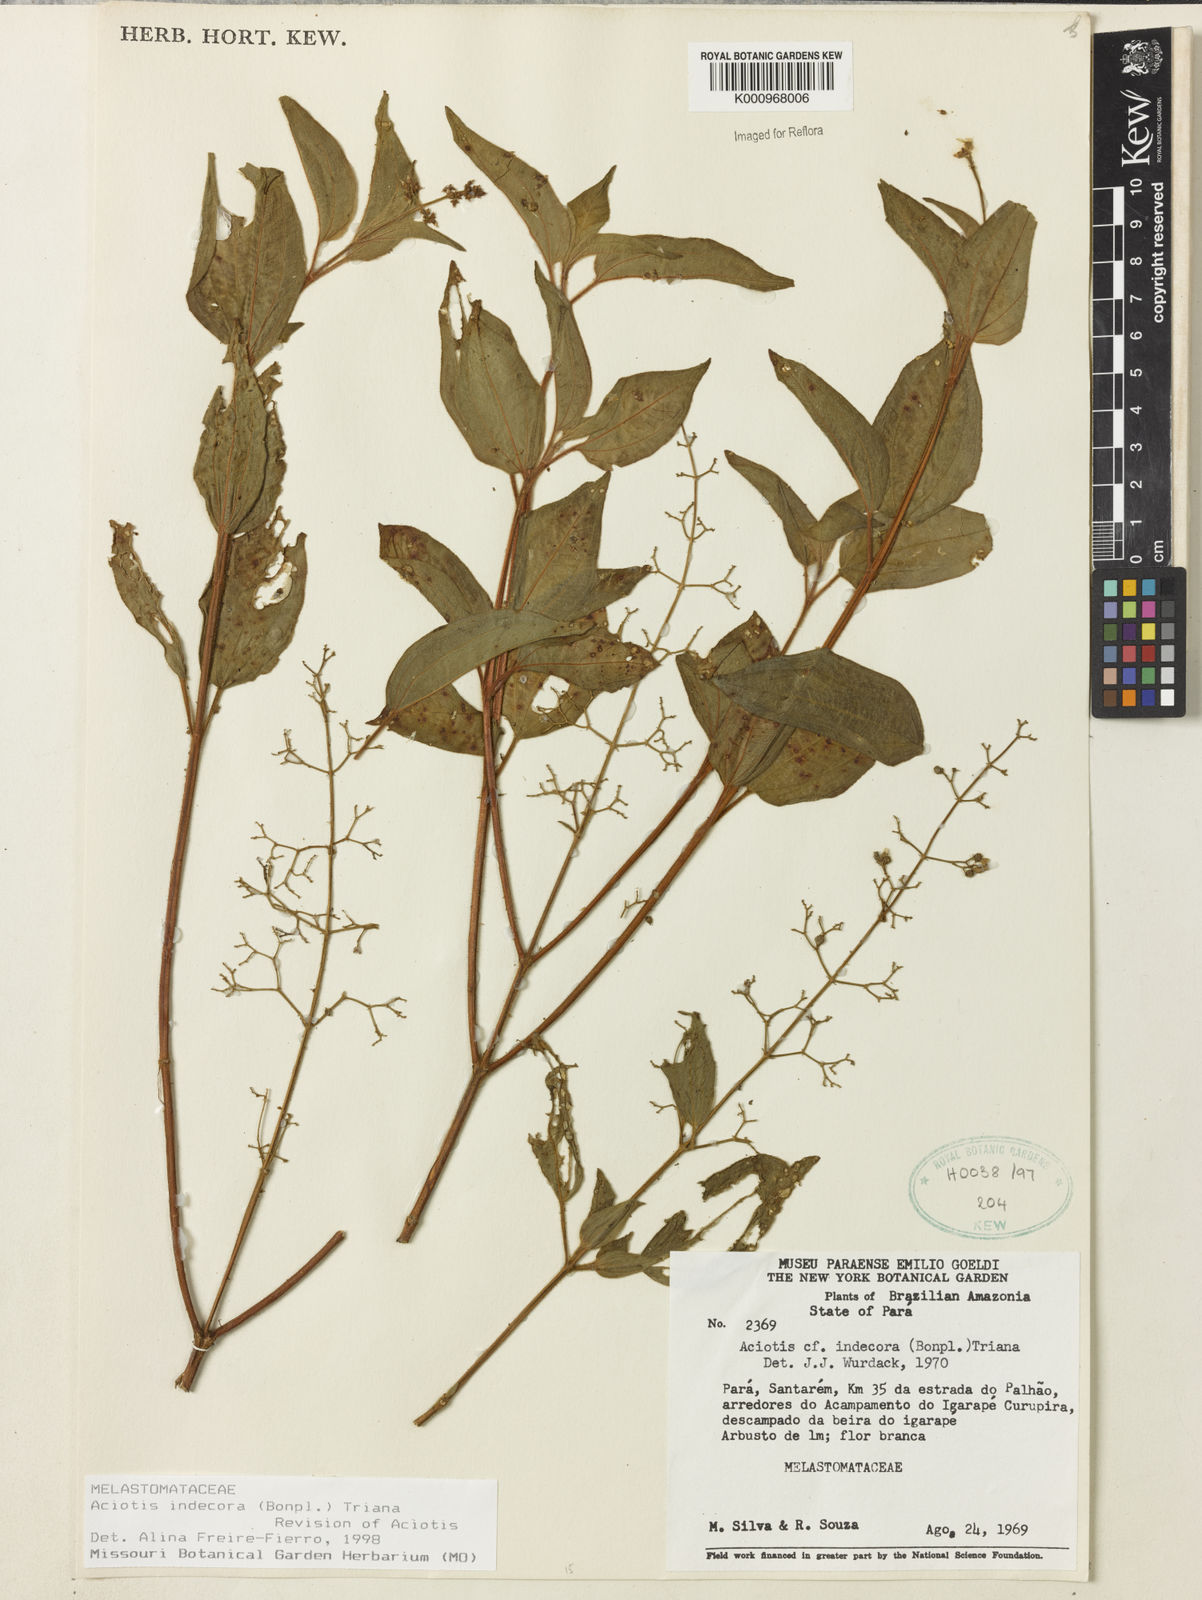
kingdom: Plantae
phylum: Tracheophyta
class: Magnoliopsida
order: Myrtales
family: Melastomataceae
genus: Aciotis
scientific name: Aciotis indecora
